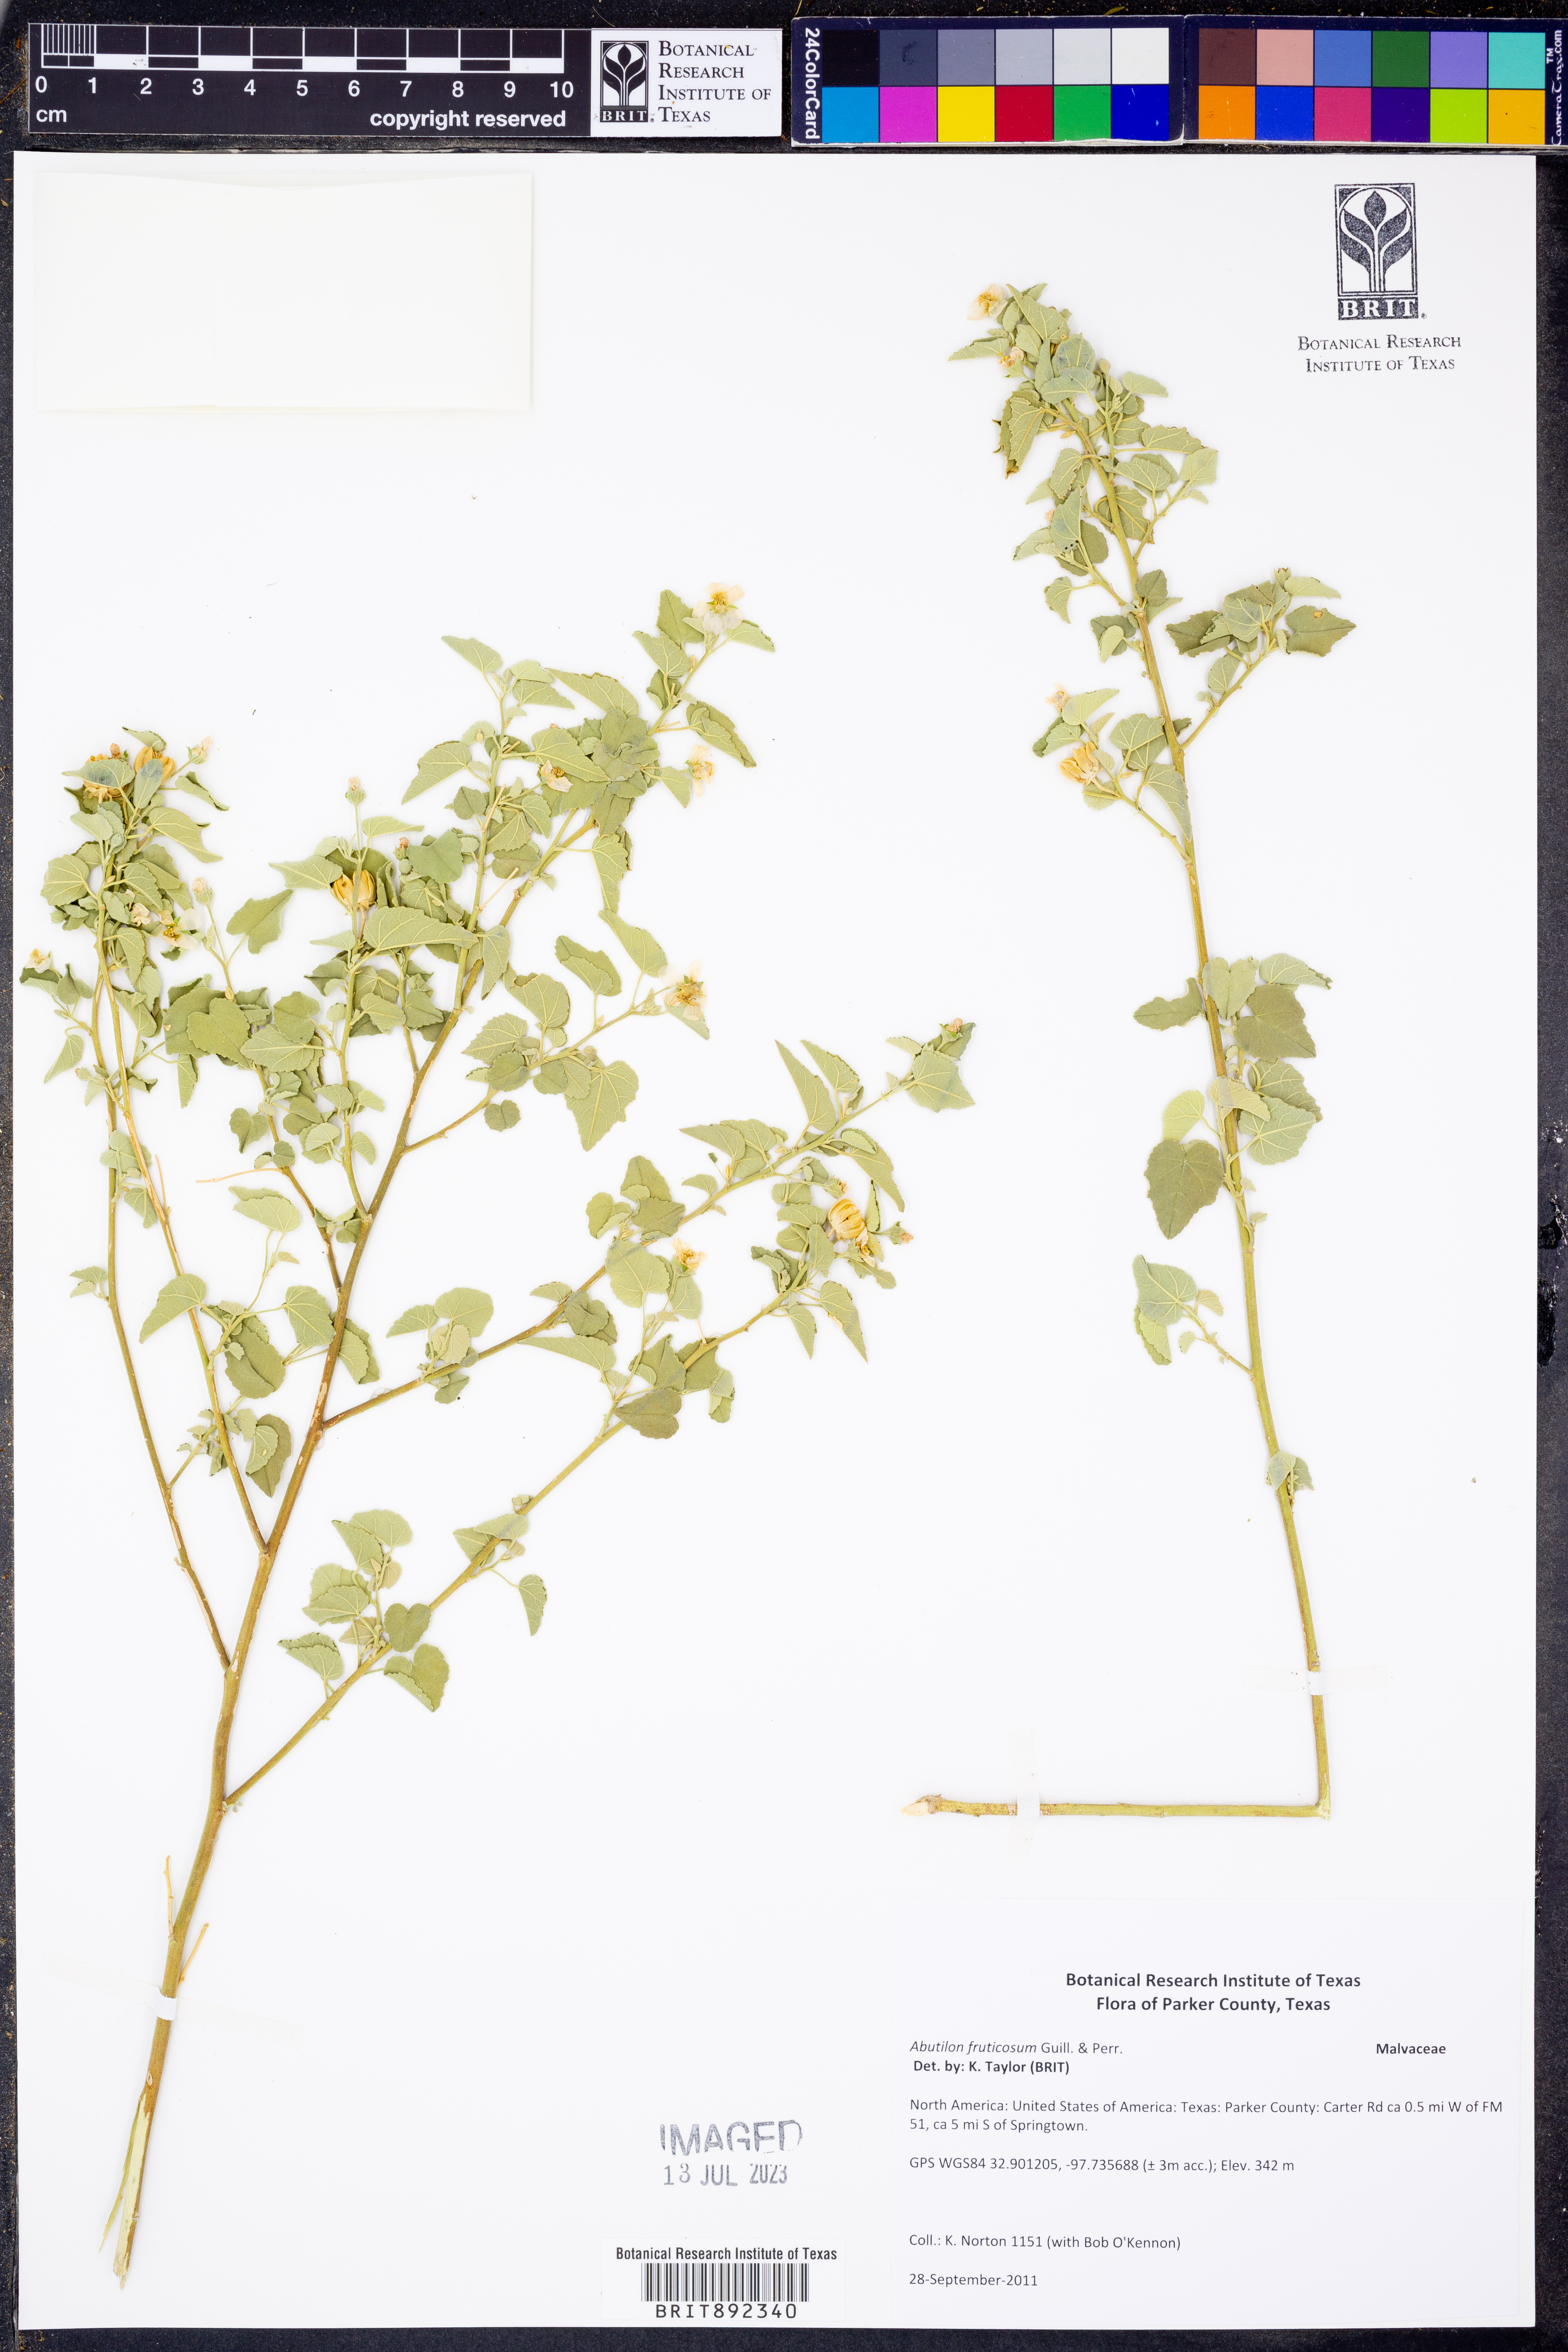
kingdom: Plantae
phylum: Tracheophyta
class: Magnoliopsida
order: Malvales
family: Malvaceae
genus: Abutilon
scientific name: Abutilon fruticosum
